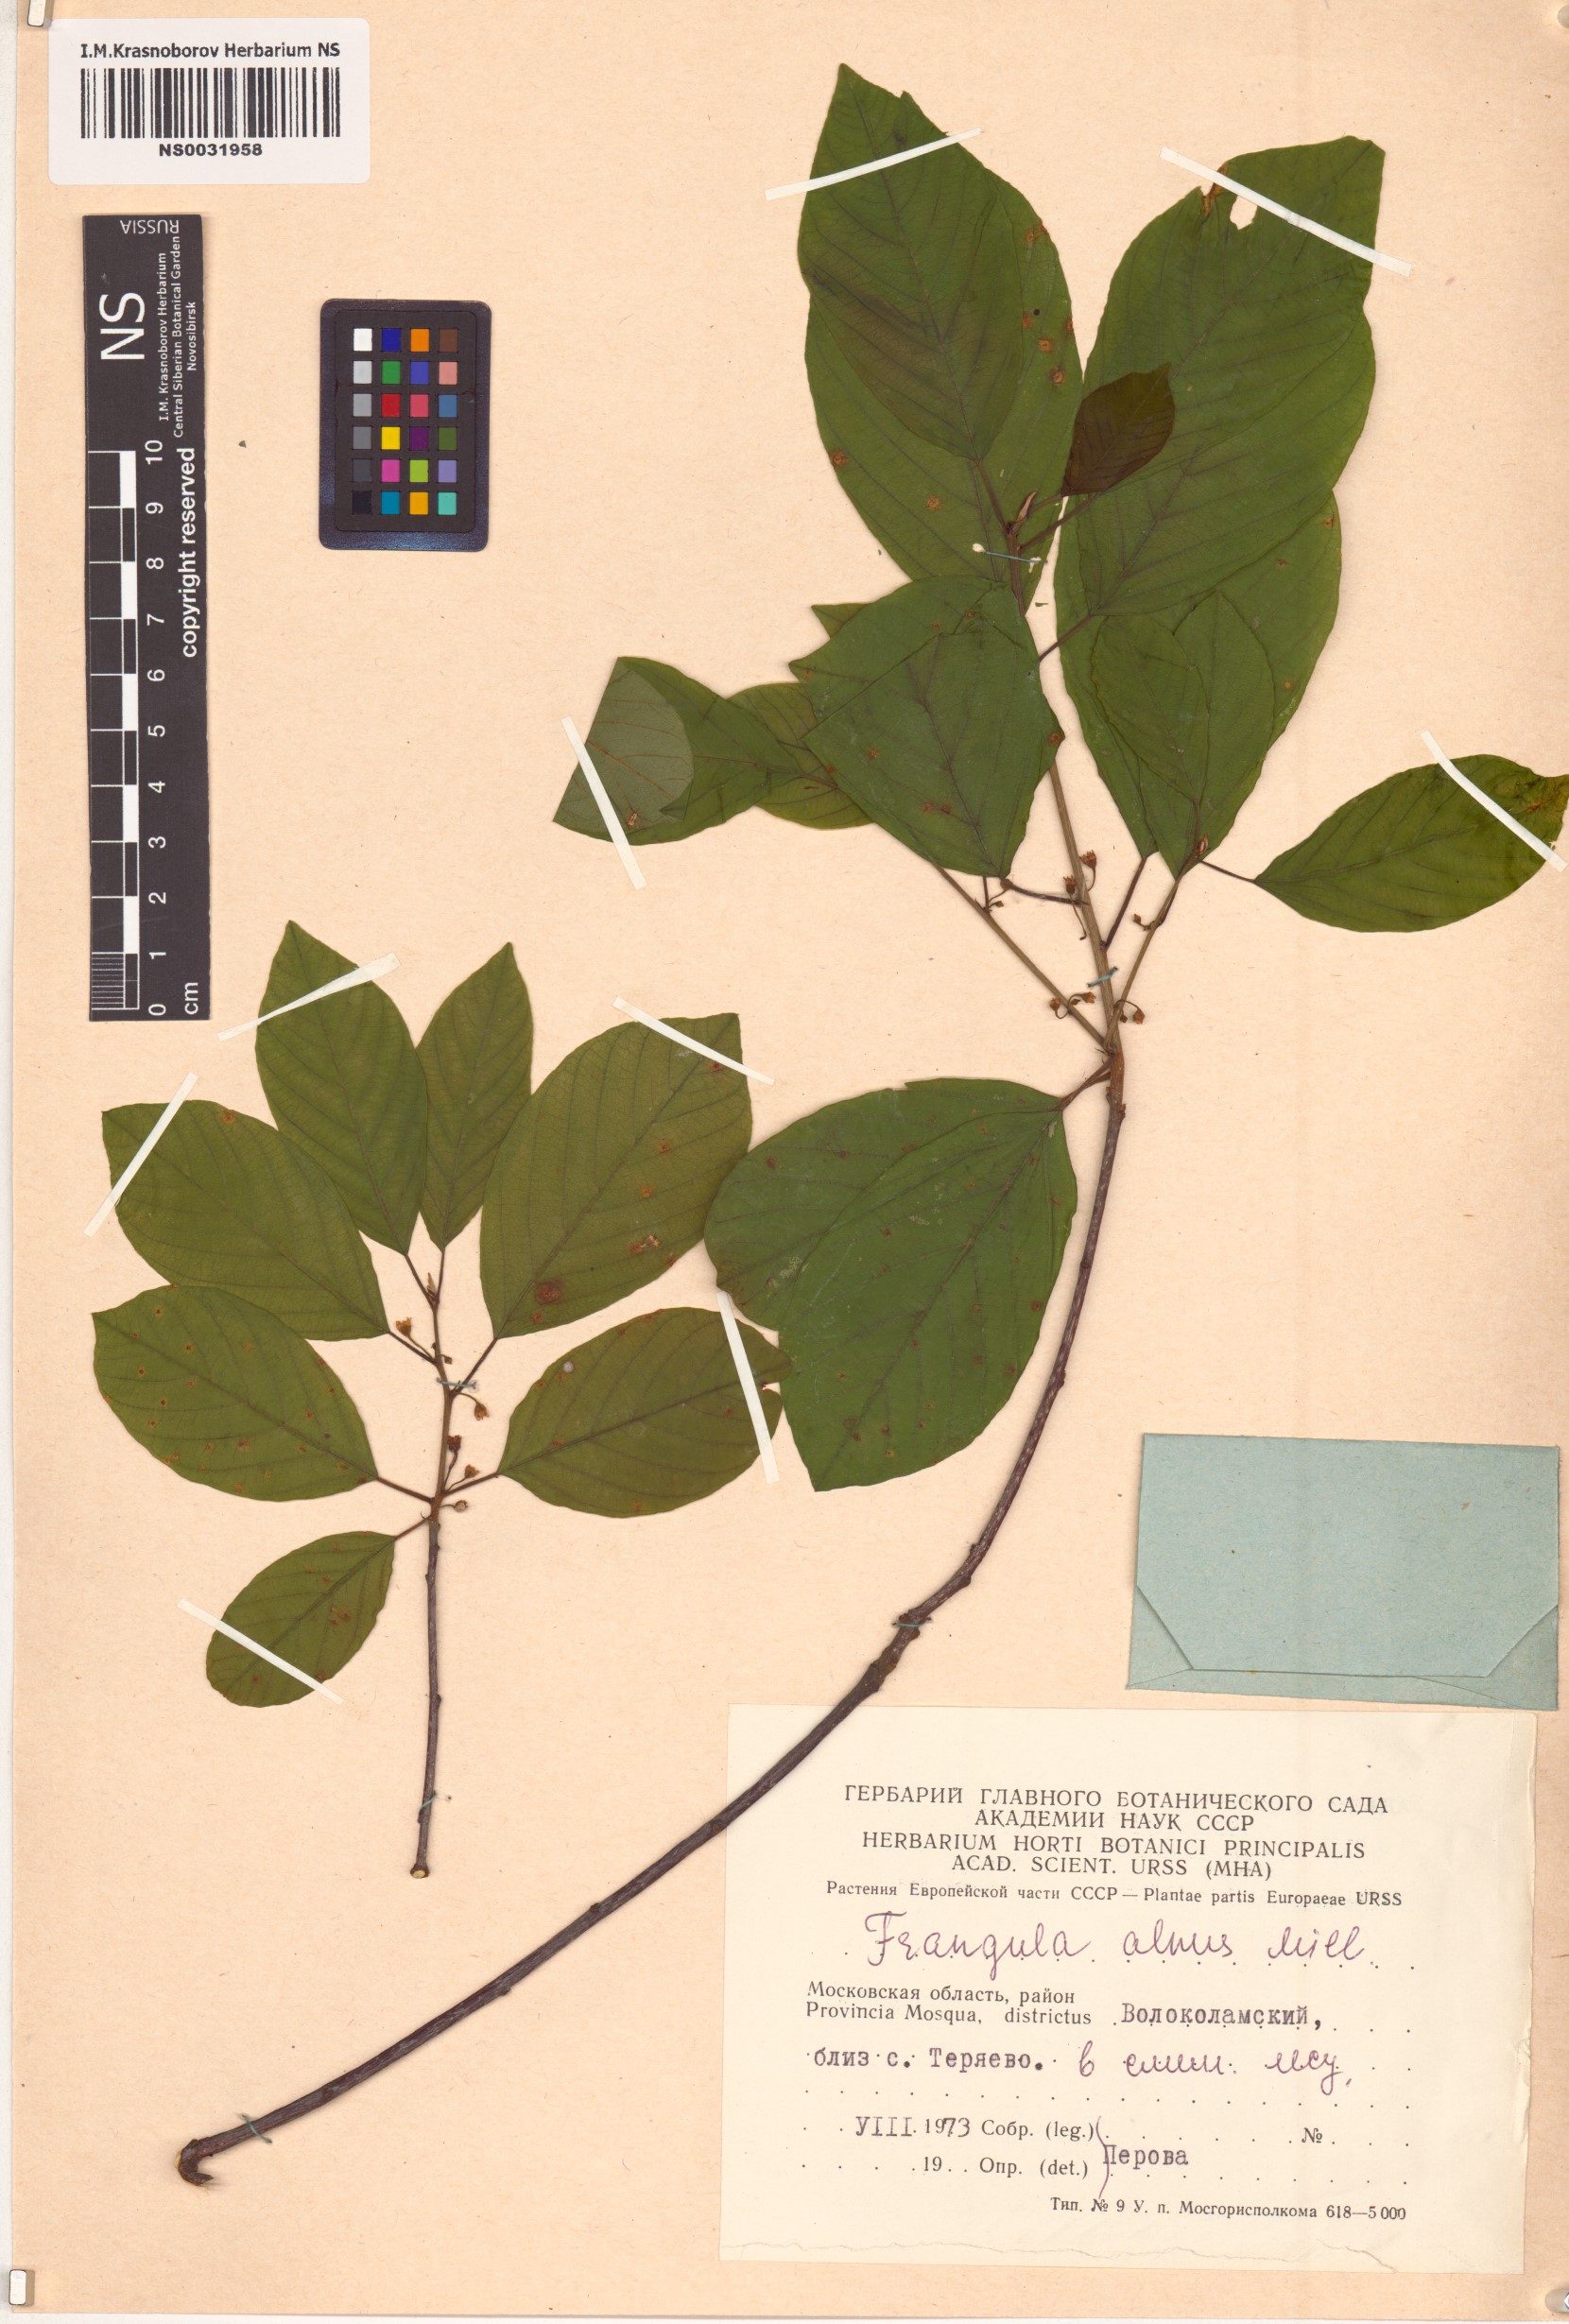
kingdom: Plantae
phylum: Tracheophyta
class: Magnoliopsida
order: Rosales
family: Rhamnaceae
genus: Frangula
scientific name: Frangula alnus
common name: Alder buckthorn
